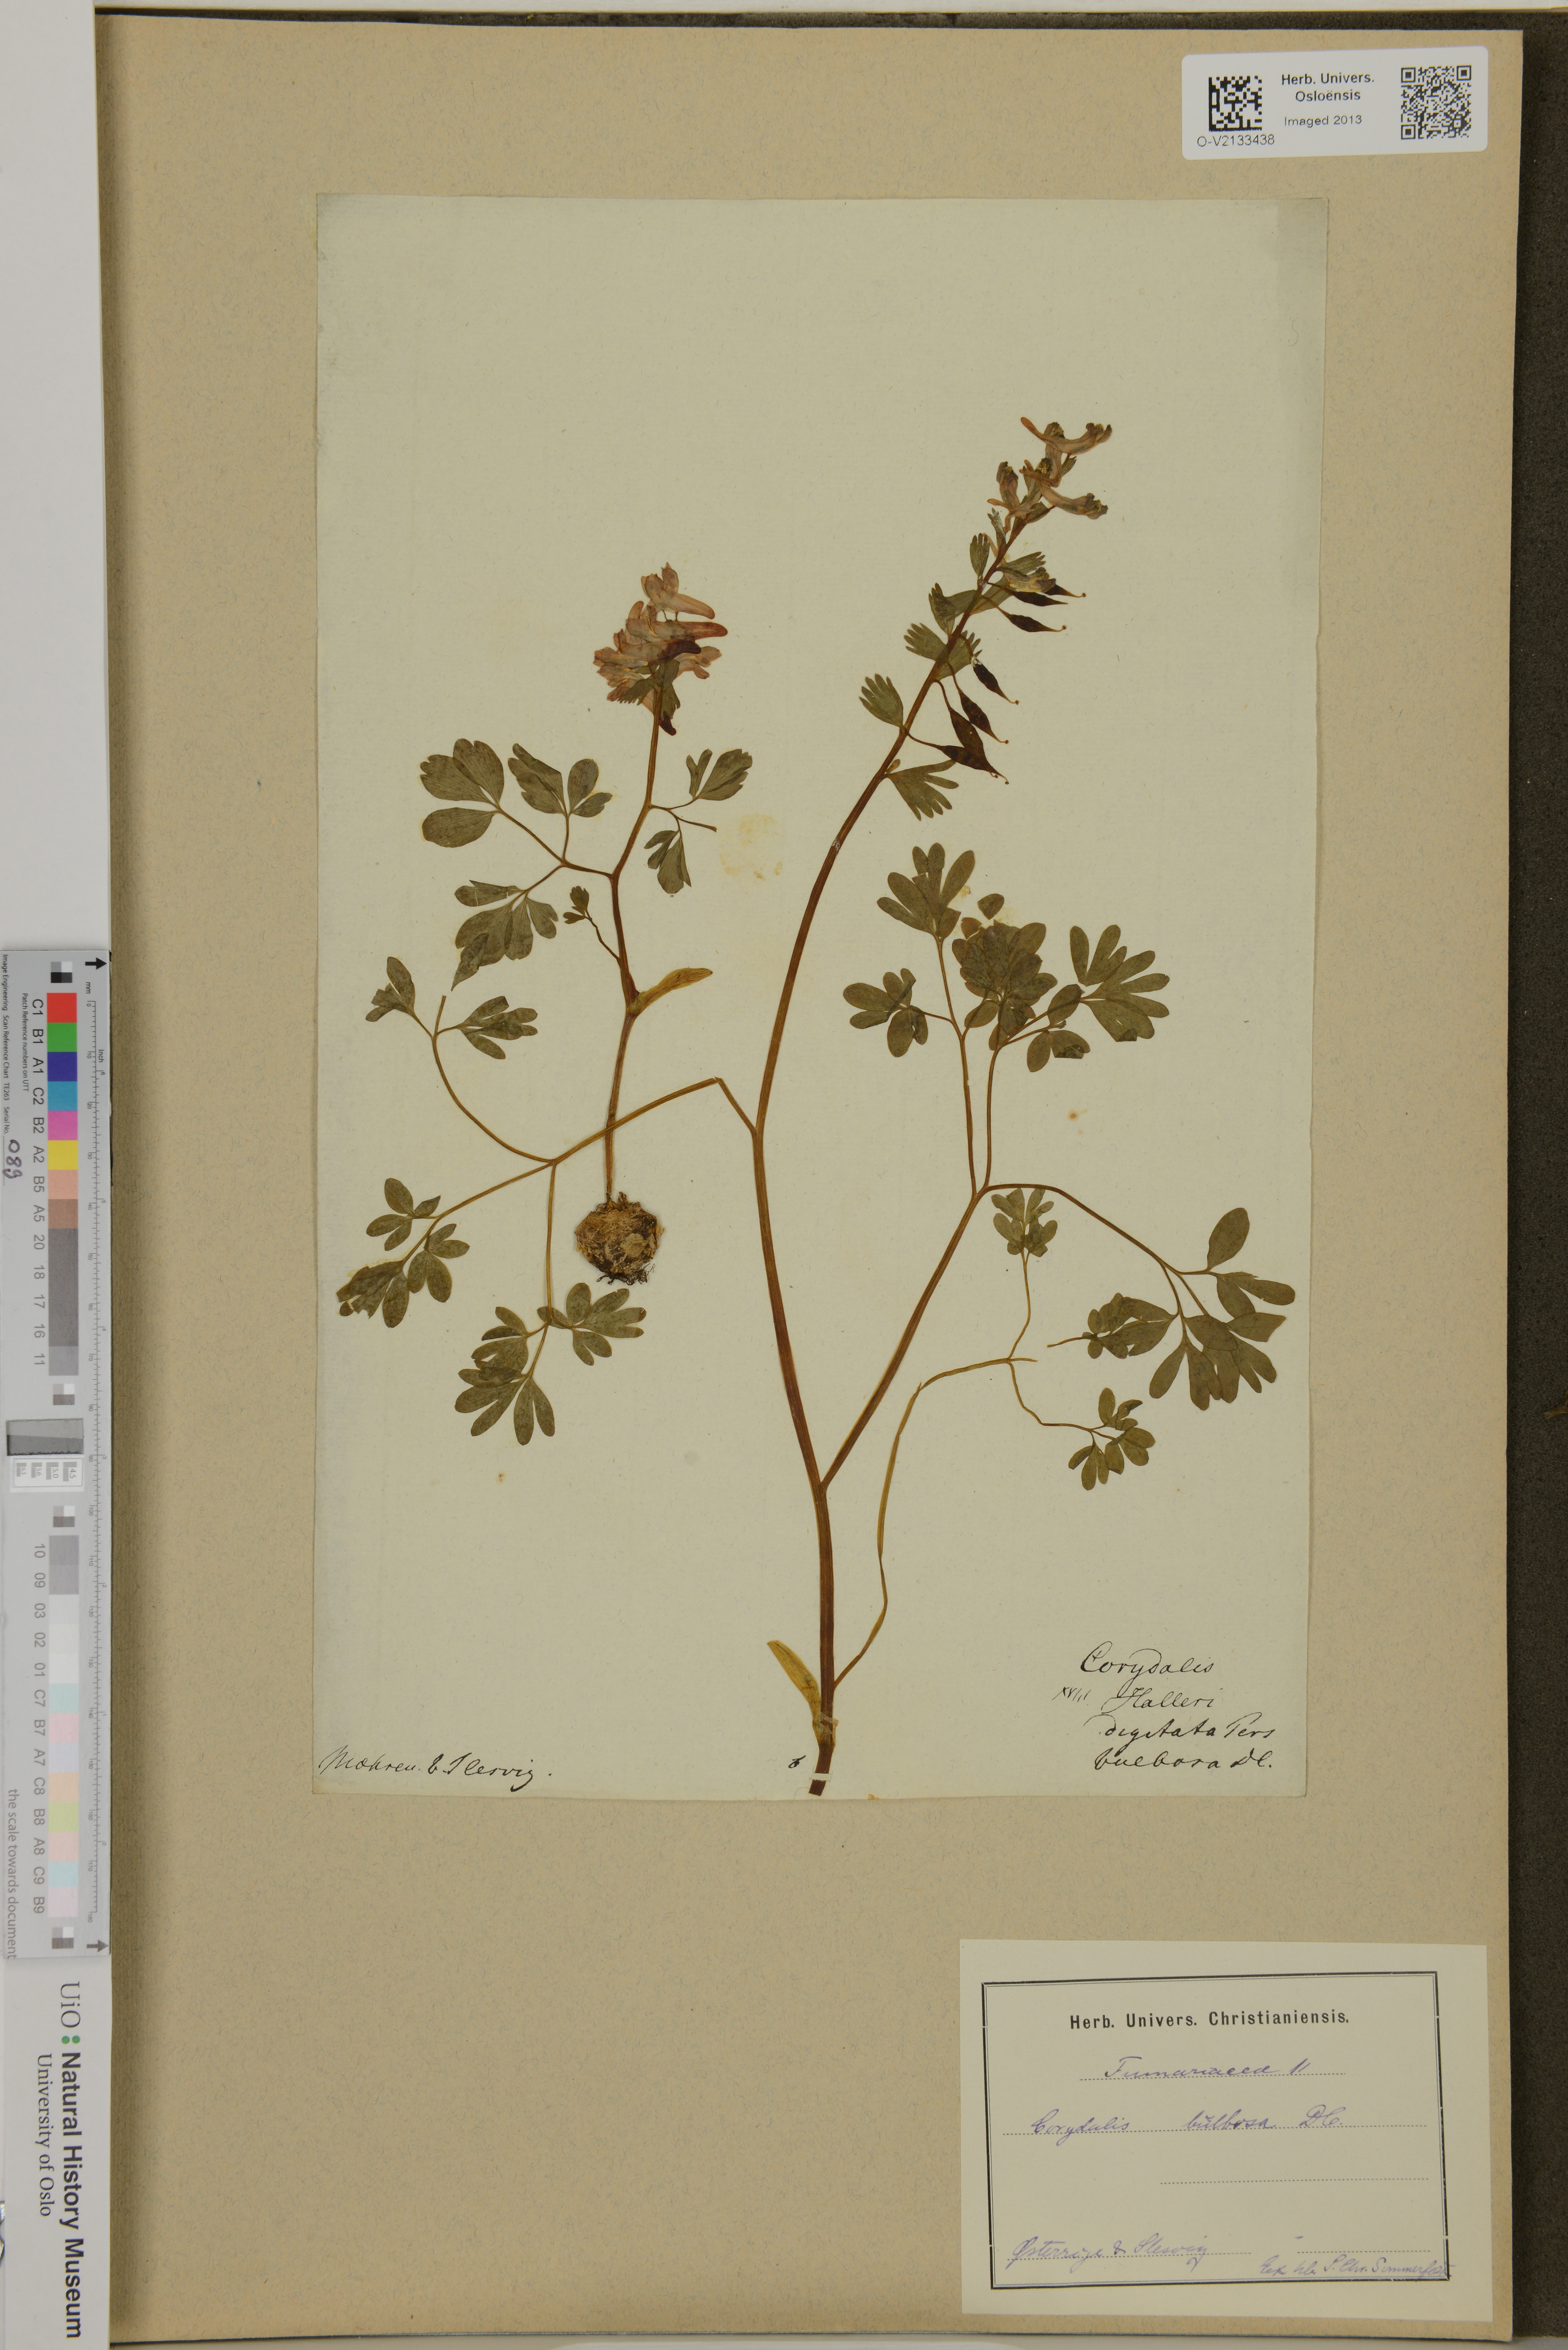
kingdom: Plantae
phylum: Tracheophyta
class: Magnoliopsida
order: Ranunculales
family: Papaveraceae
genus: Corydalis
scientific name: Corydalis bulbosa
